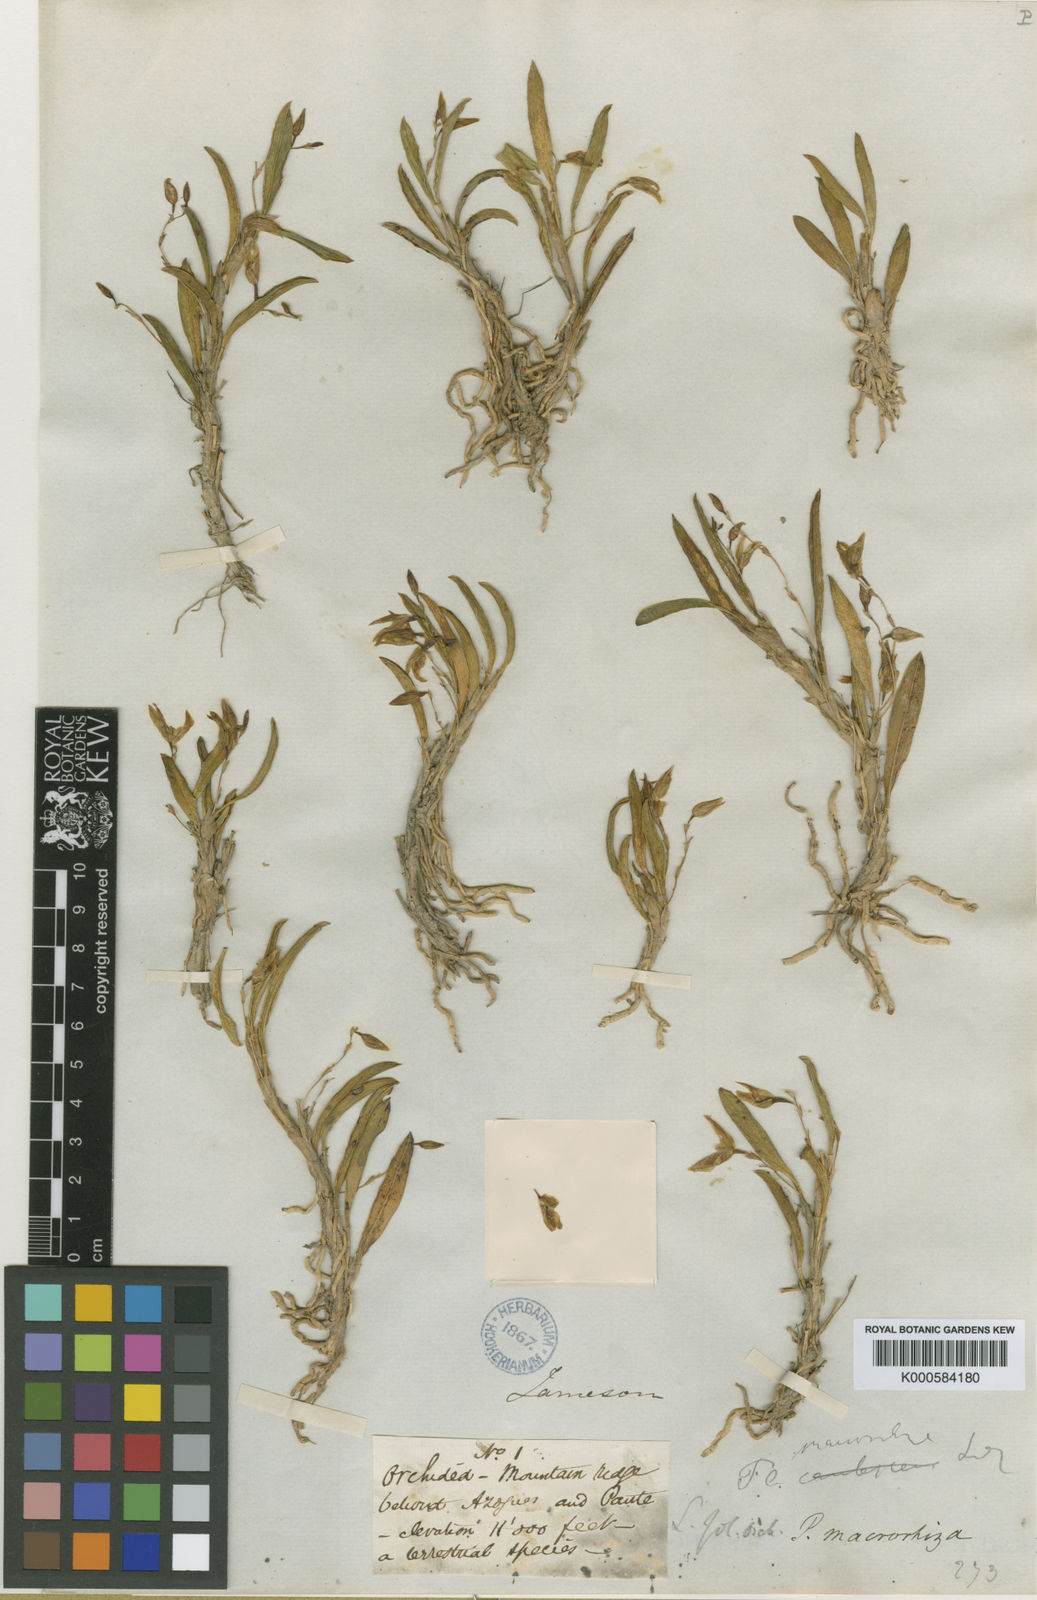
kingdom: Plantae
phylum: Tracheophyta
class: Liliopsida
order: Asparagales
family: Orchidaceae
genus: Andinia
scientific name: Andinia spiralis
